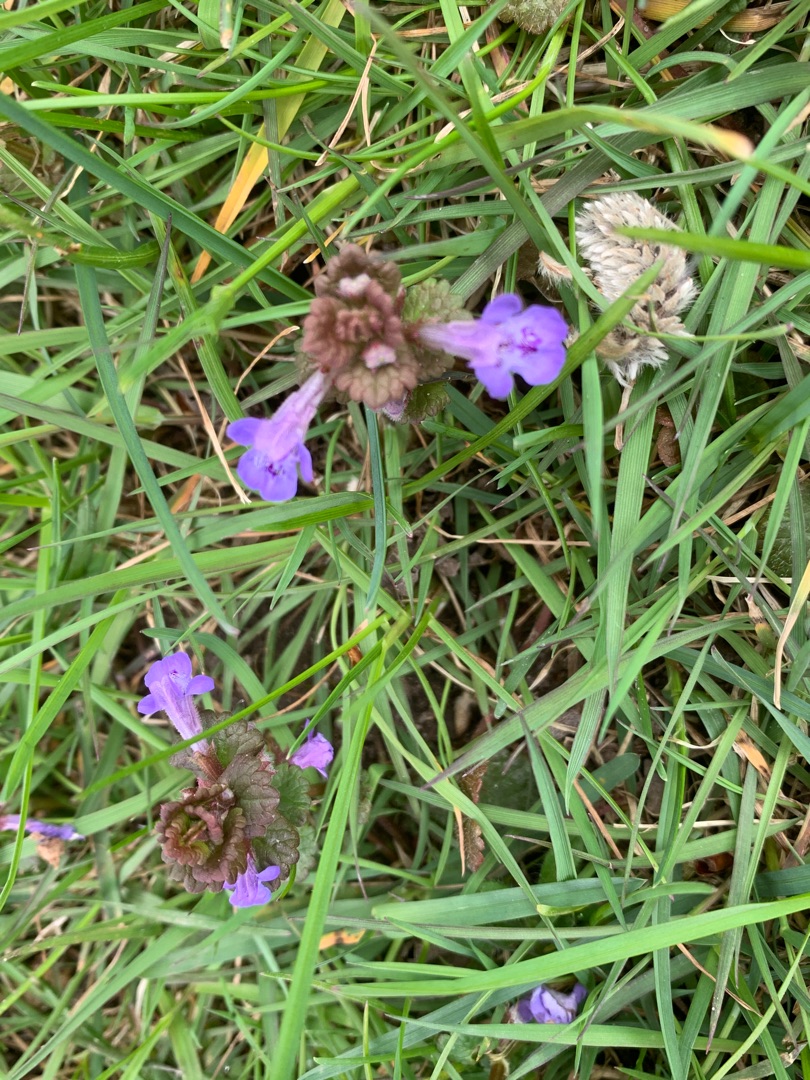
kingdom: Plantae
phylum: Tracheophyta
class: Magnoliopsida
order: Lamiales
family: Lamiaceae
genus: Glechoma
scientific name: Glechoma hederacea
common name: Korsknap
